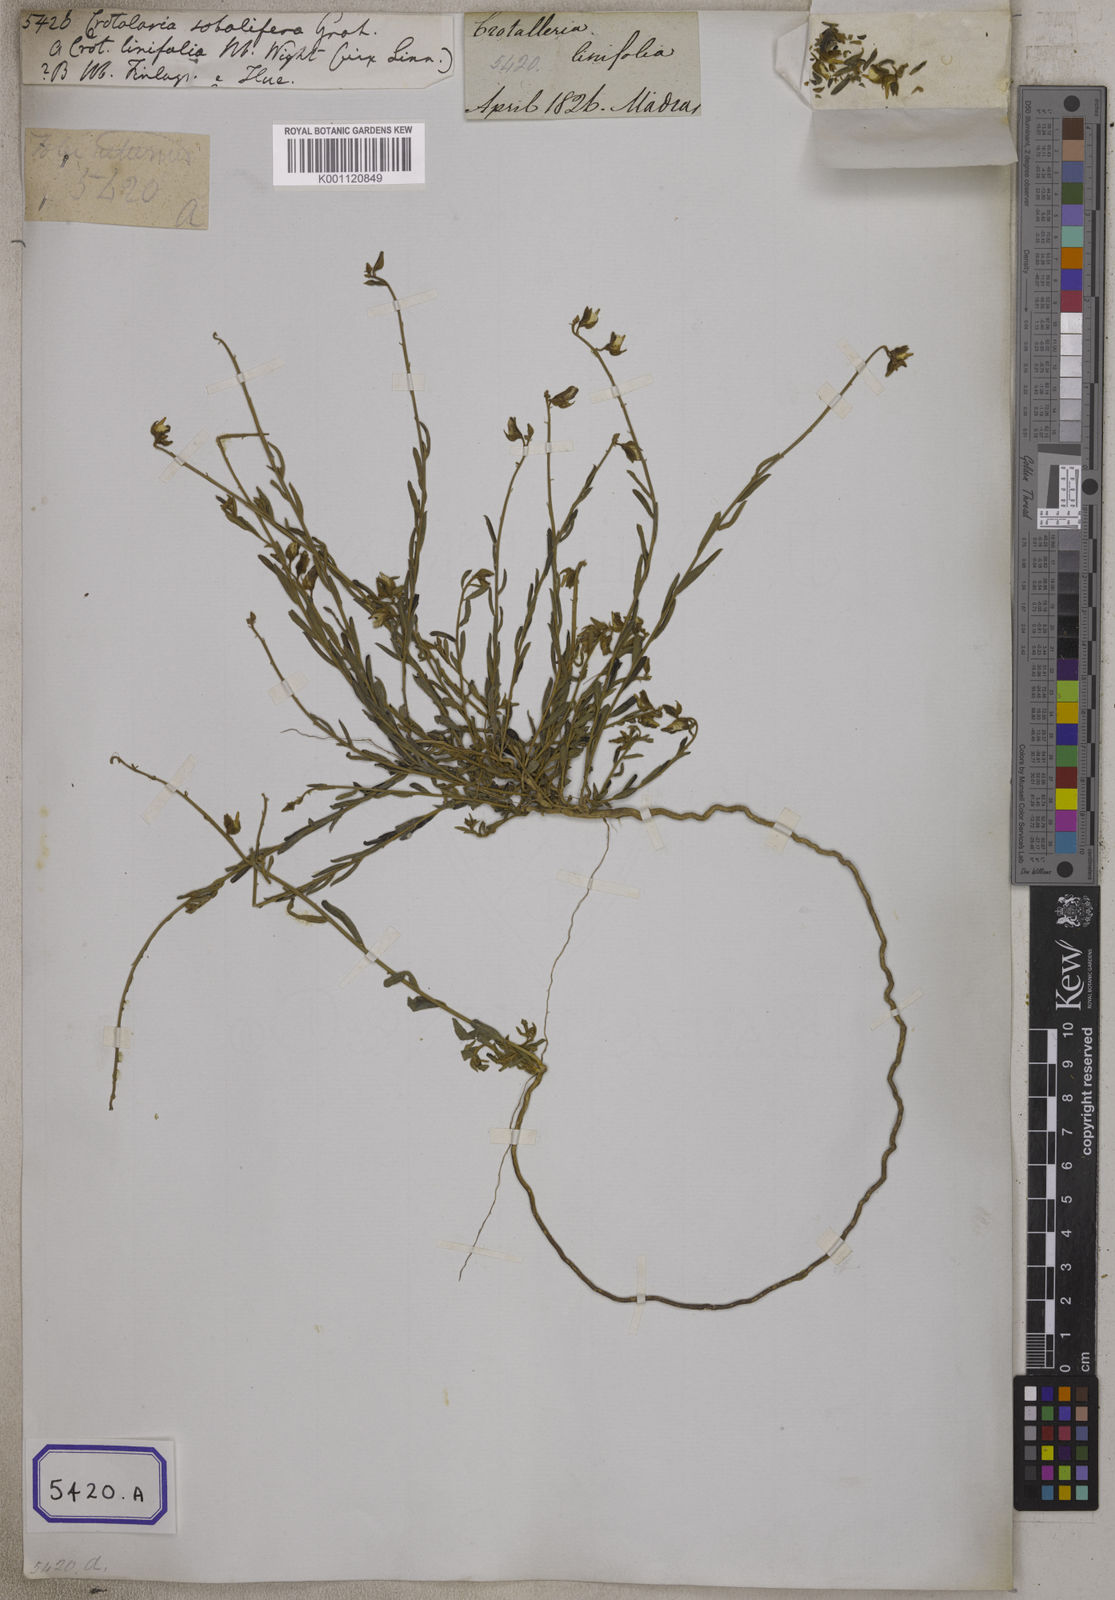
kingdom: Plantae
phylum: Tracheophyta
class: Magnoliopsida
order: Fabales
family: Fabaceae
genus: Crotalaria
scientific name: Crotalaria
